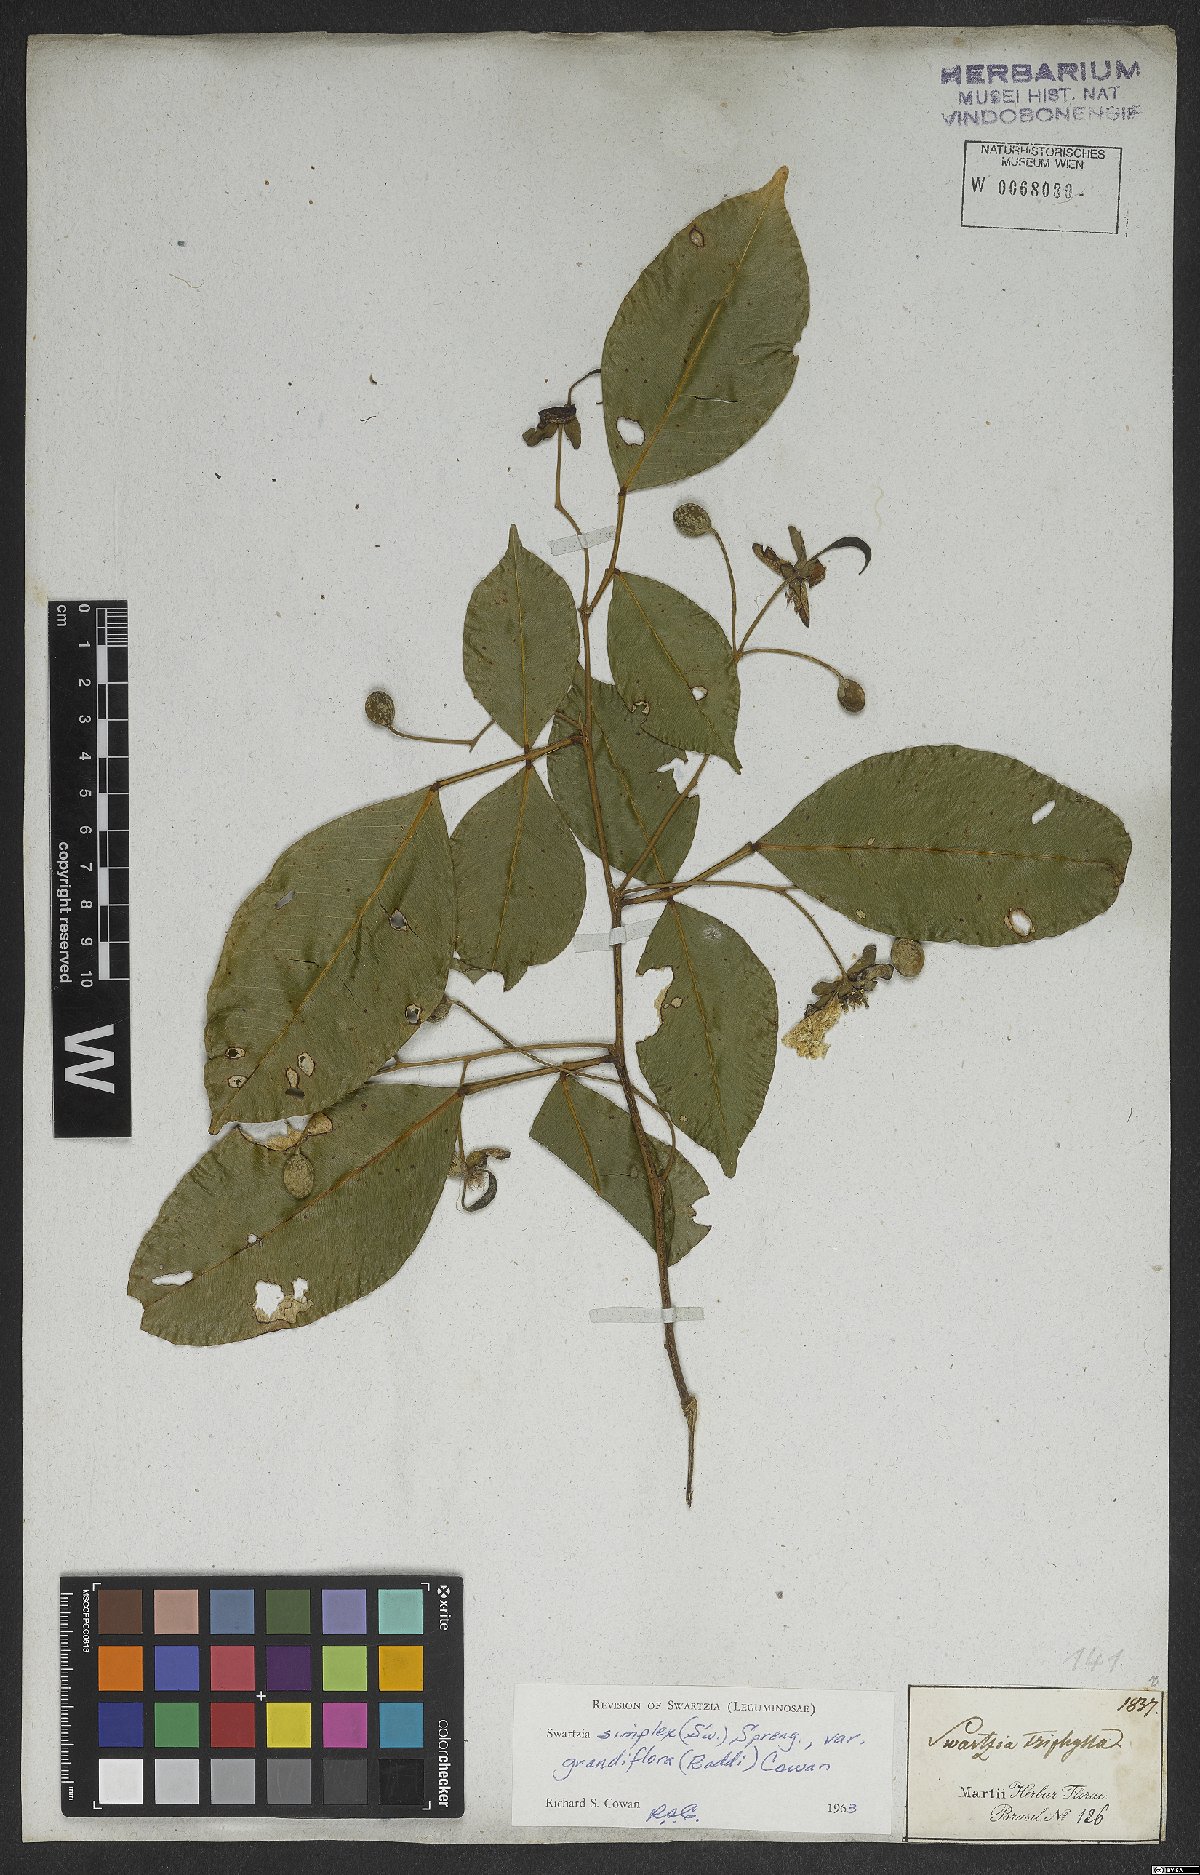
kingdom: Plantae
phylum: Tracheophyta
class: Magnoliopsida
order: Fabales
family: Fabaceae
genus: Swartzia
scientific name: Swartzia simplex
